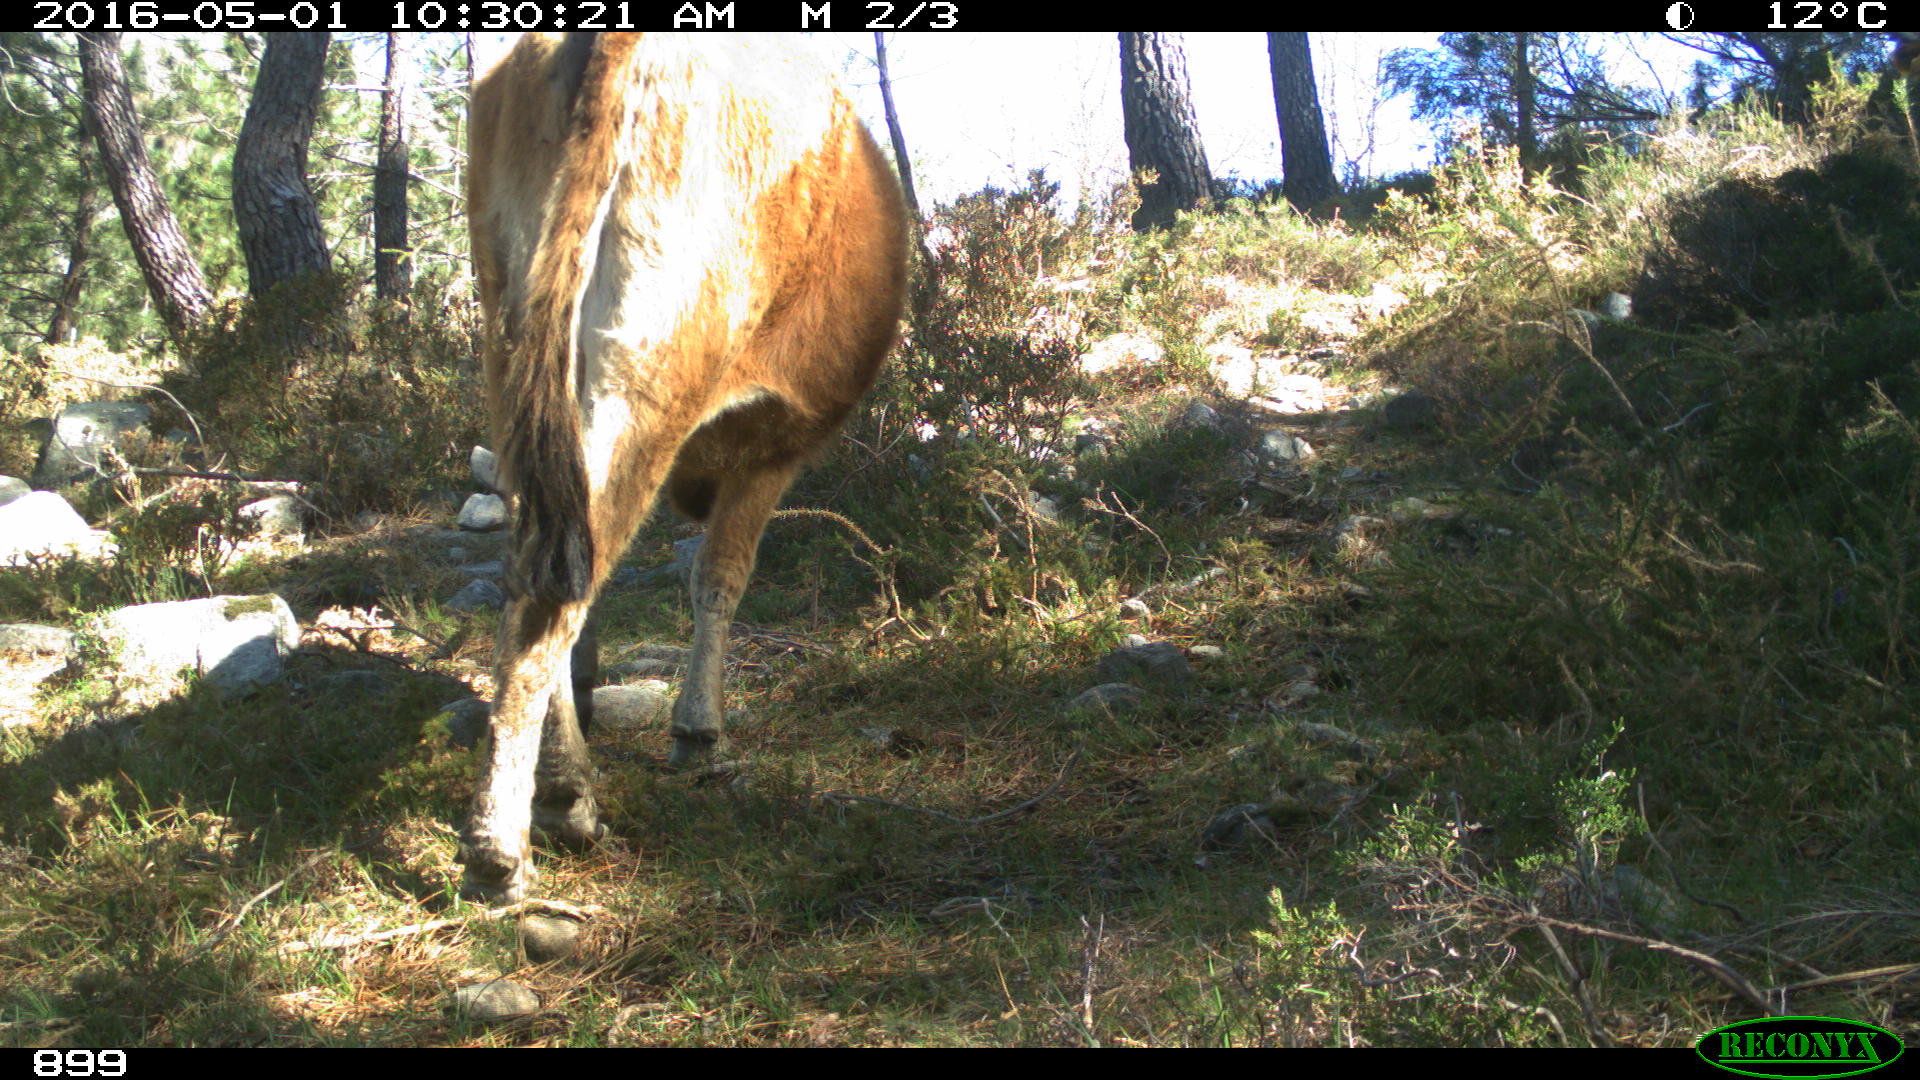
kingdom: Animalia
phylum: Chordata
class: Mammalia
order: Artiodactyla
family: Bovidae
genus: Bos
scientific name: Bos taurus
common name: Domesticated cattle
